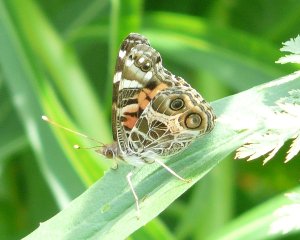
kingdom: Animalia
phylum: Arthropoda
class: Insecta
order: Lepidoptera
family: Nymphalidae
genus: Vanessa
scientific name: Vanessa virginiensis
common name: American Lady
